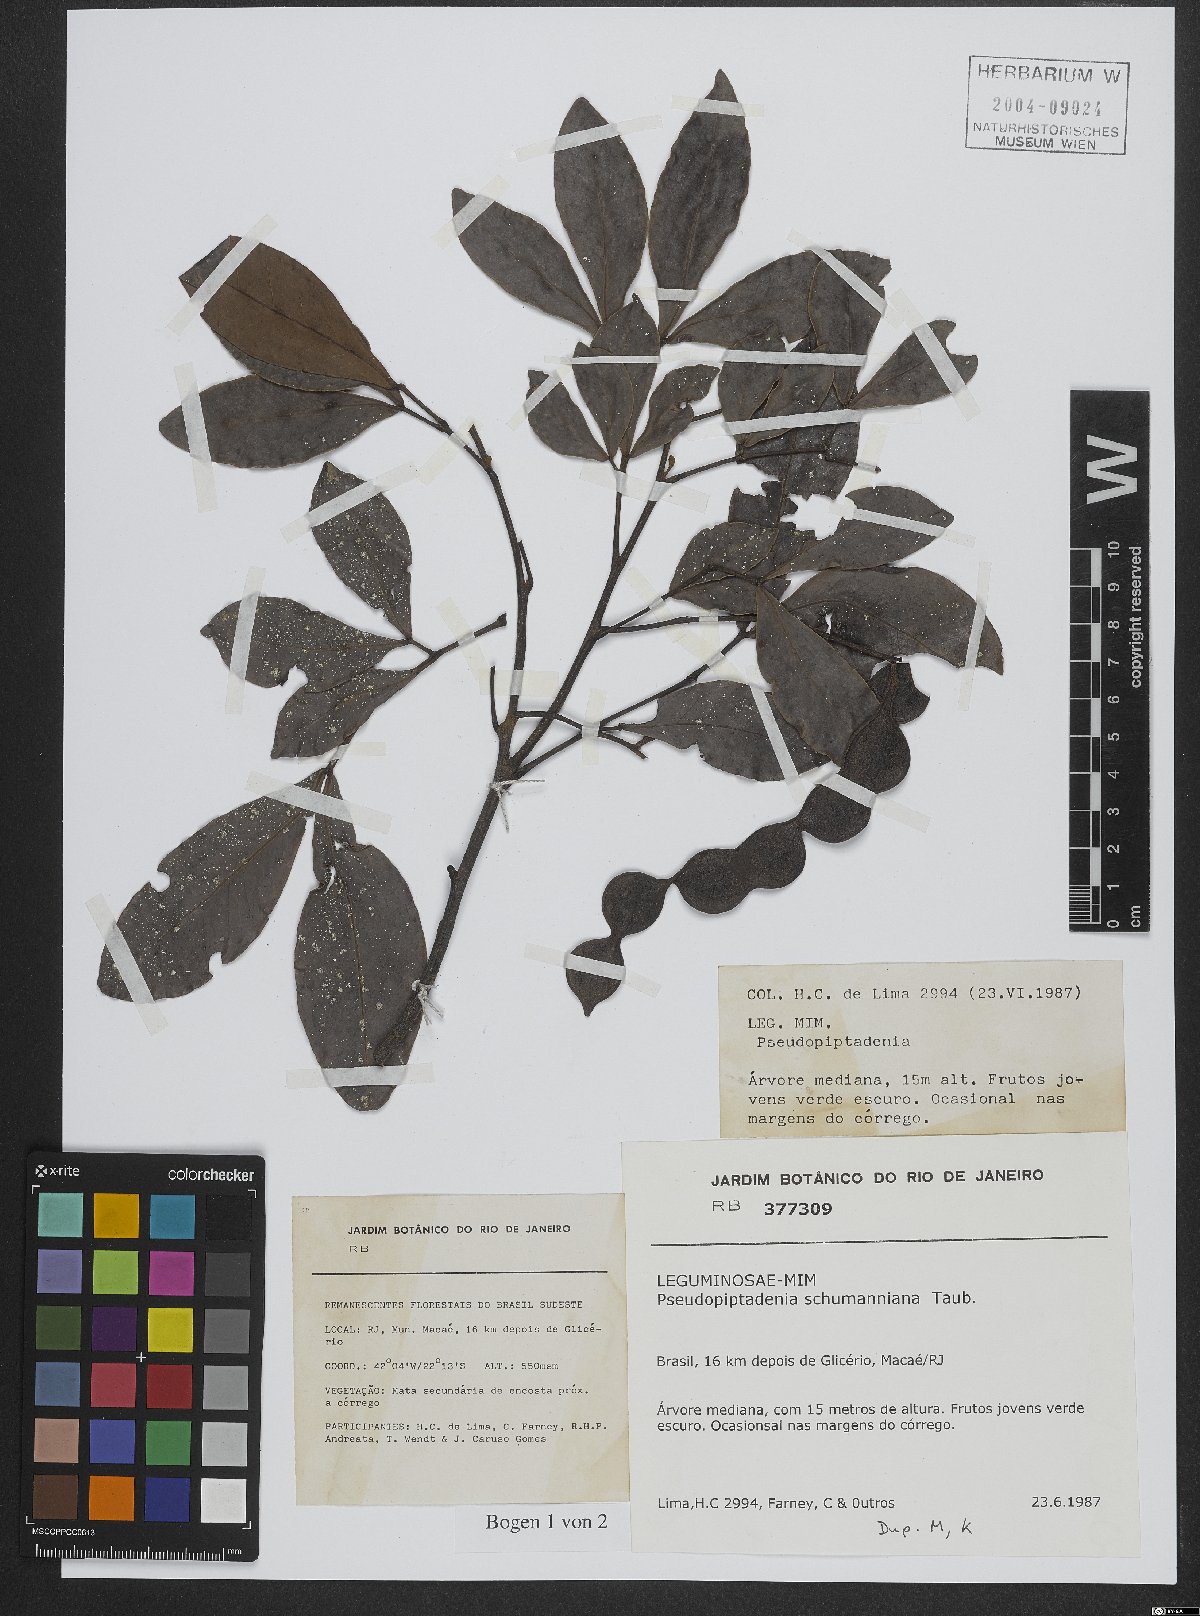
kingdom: Plantae
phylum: Tracheophyta
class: Magnoliopsida
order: Fabales
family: Fabaceae
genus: Pseudopiptadenia
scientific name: Pseudopiptadenia schumanniana
